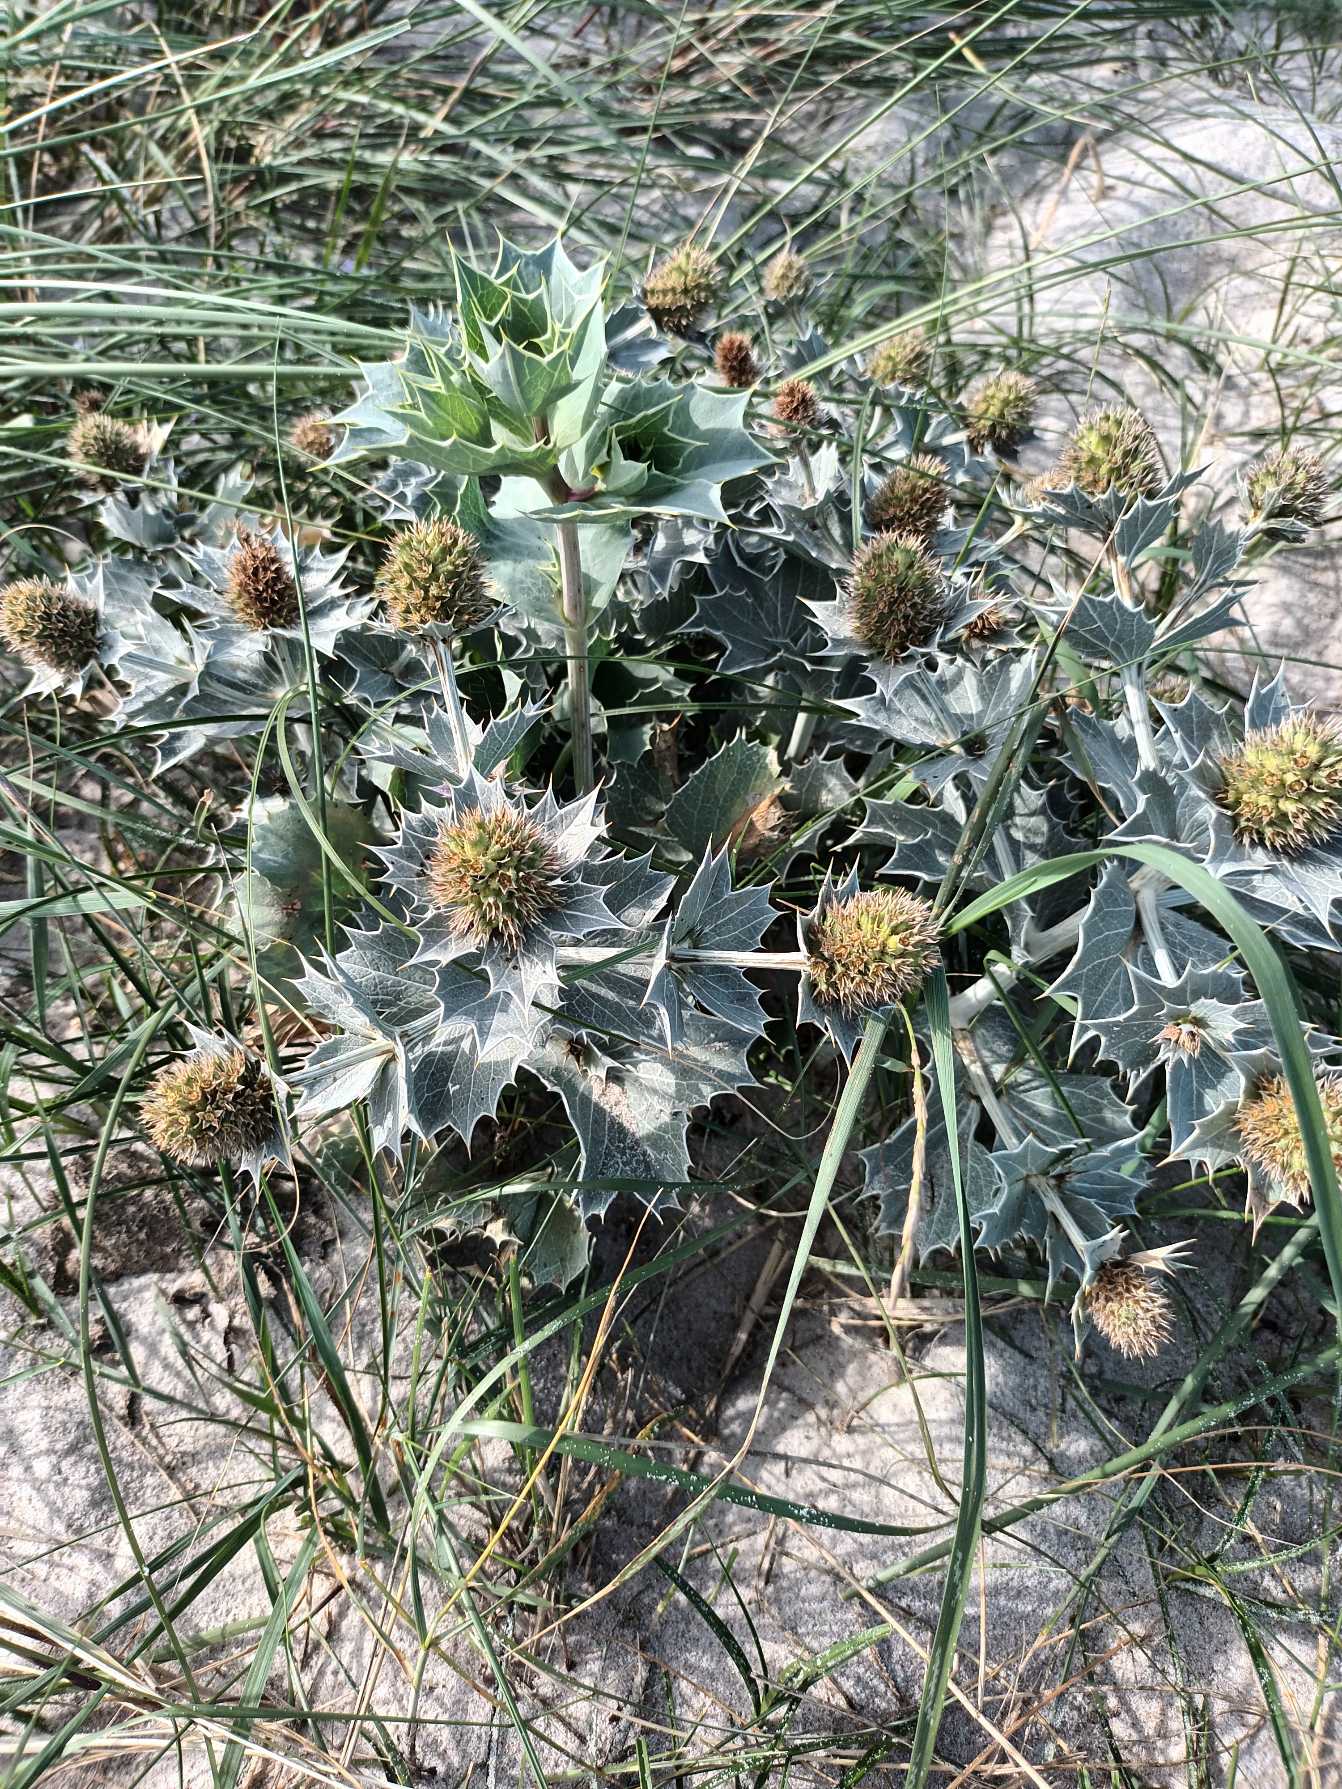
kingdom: Plantae
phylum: Tracheophyta
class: Magnoliopsida
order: Apiales
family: Apiaceae
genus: Eryngium
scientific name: Eryngium maritimum
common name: Strand-mandstro
